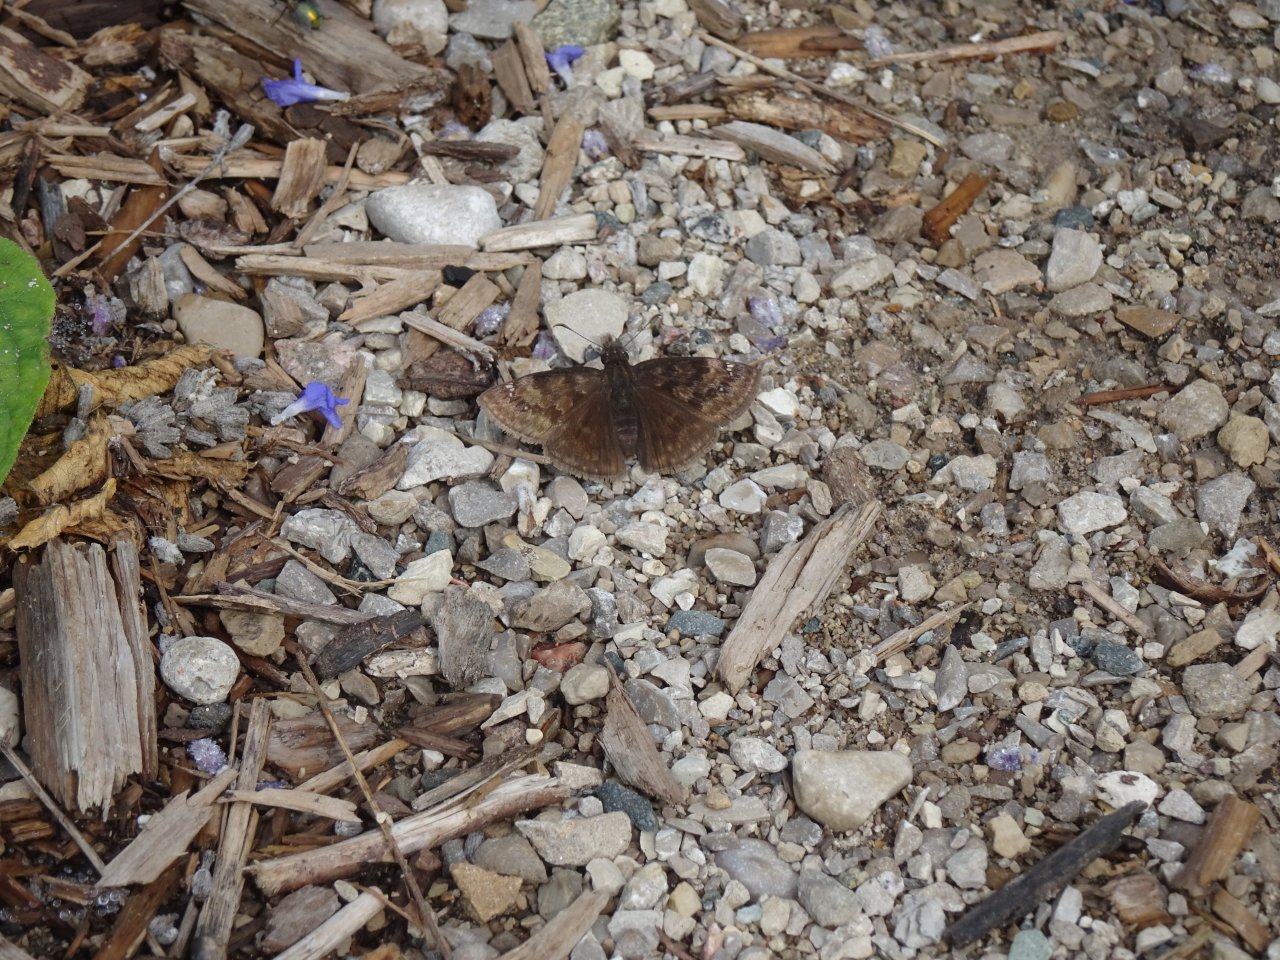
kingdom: Animalia
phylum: Arthropoda
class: Insecta
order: Lepidoptera
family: Hesperiidae
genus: Gesta
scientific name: Gesta
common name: Wild Indigo Duskywing
